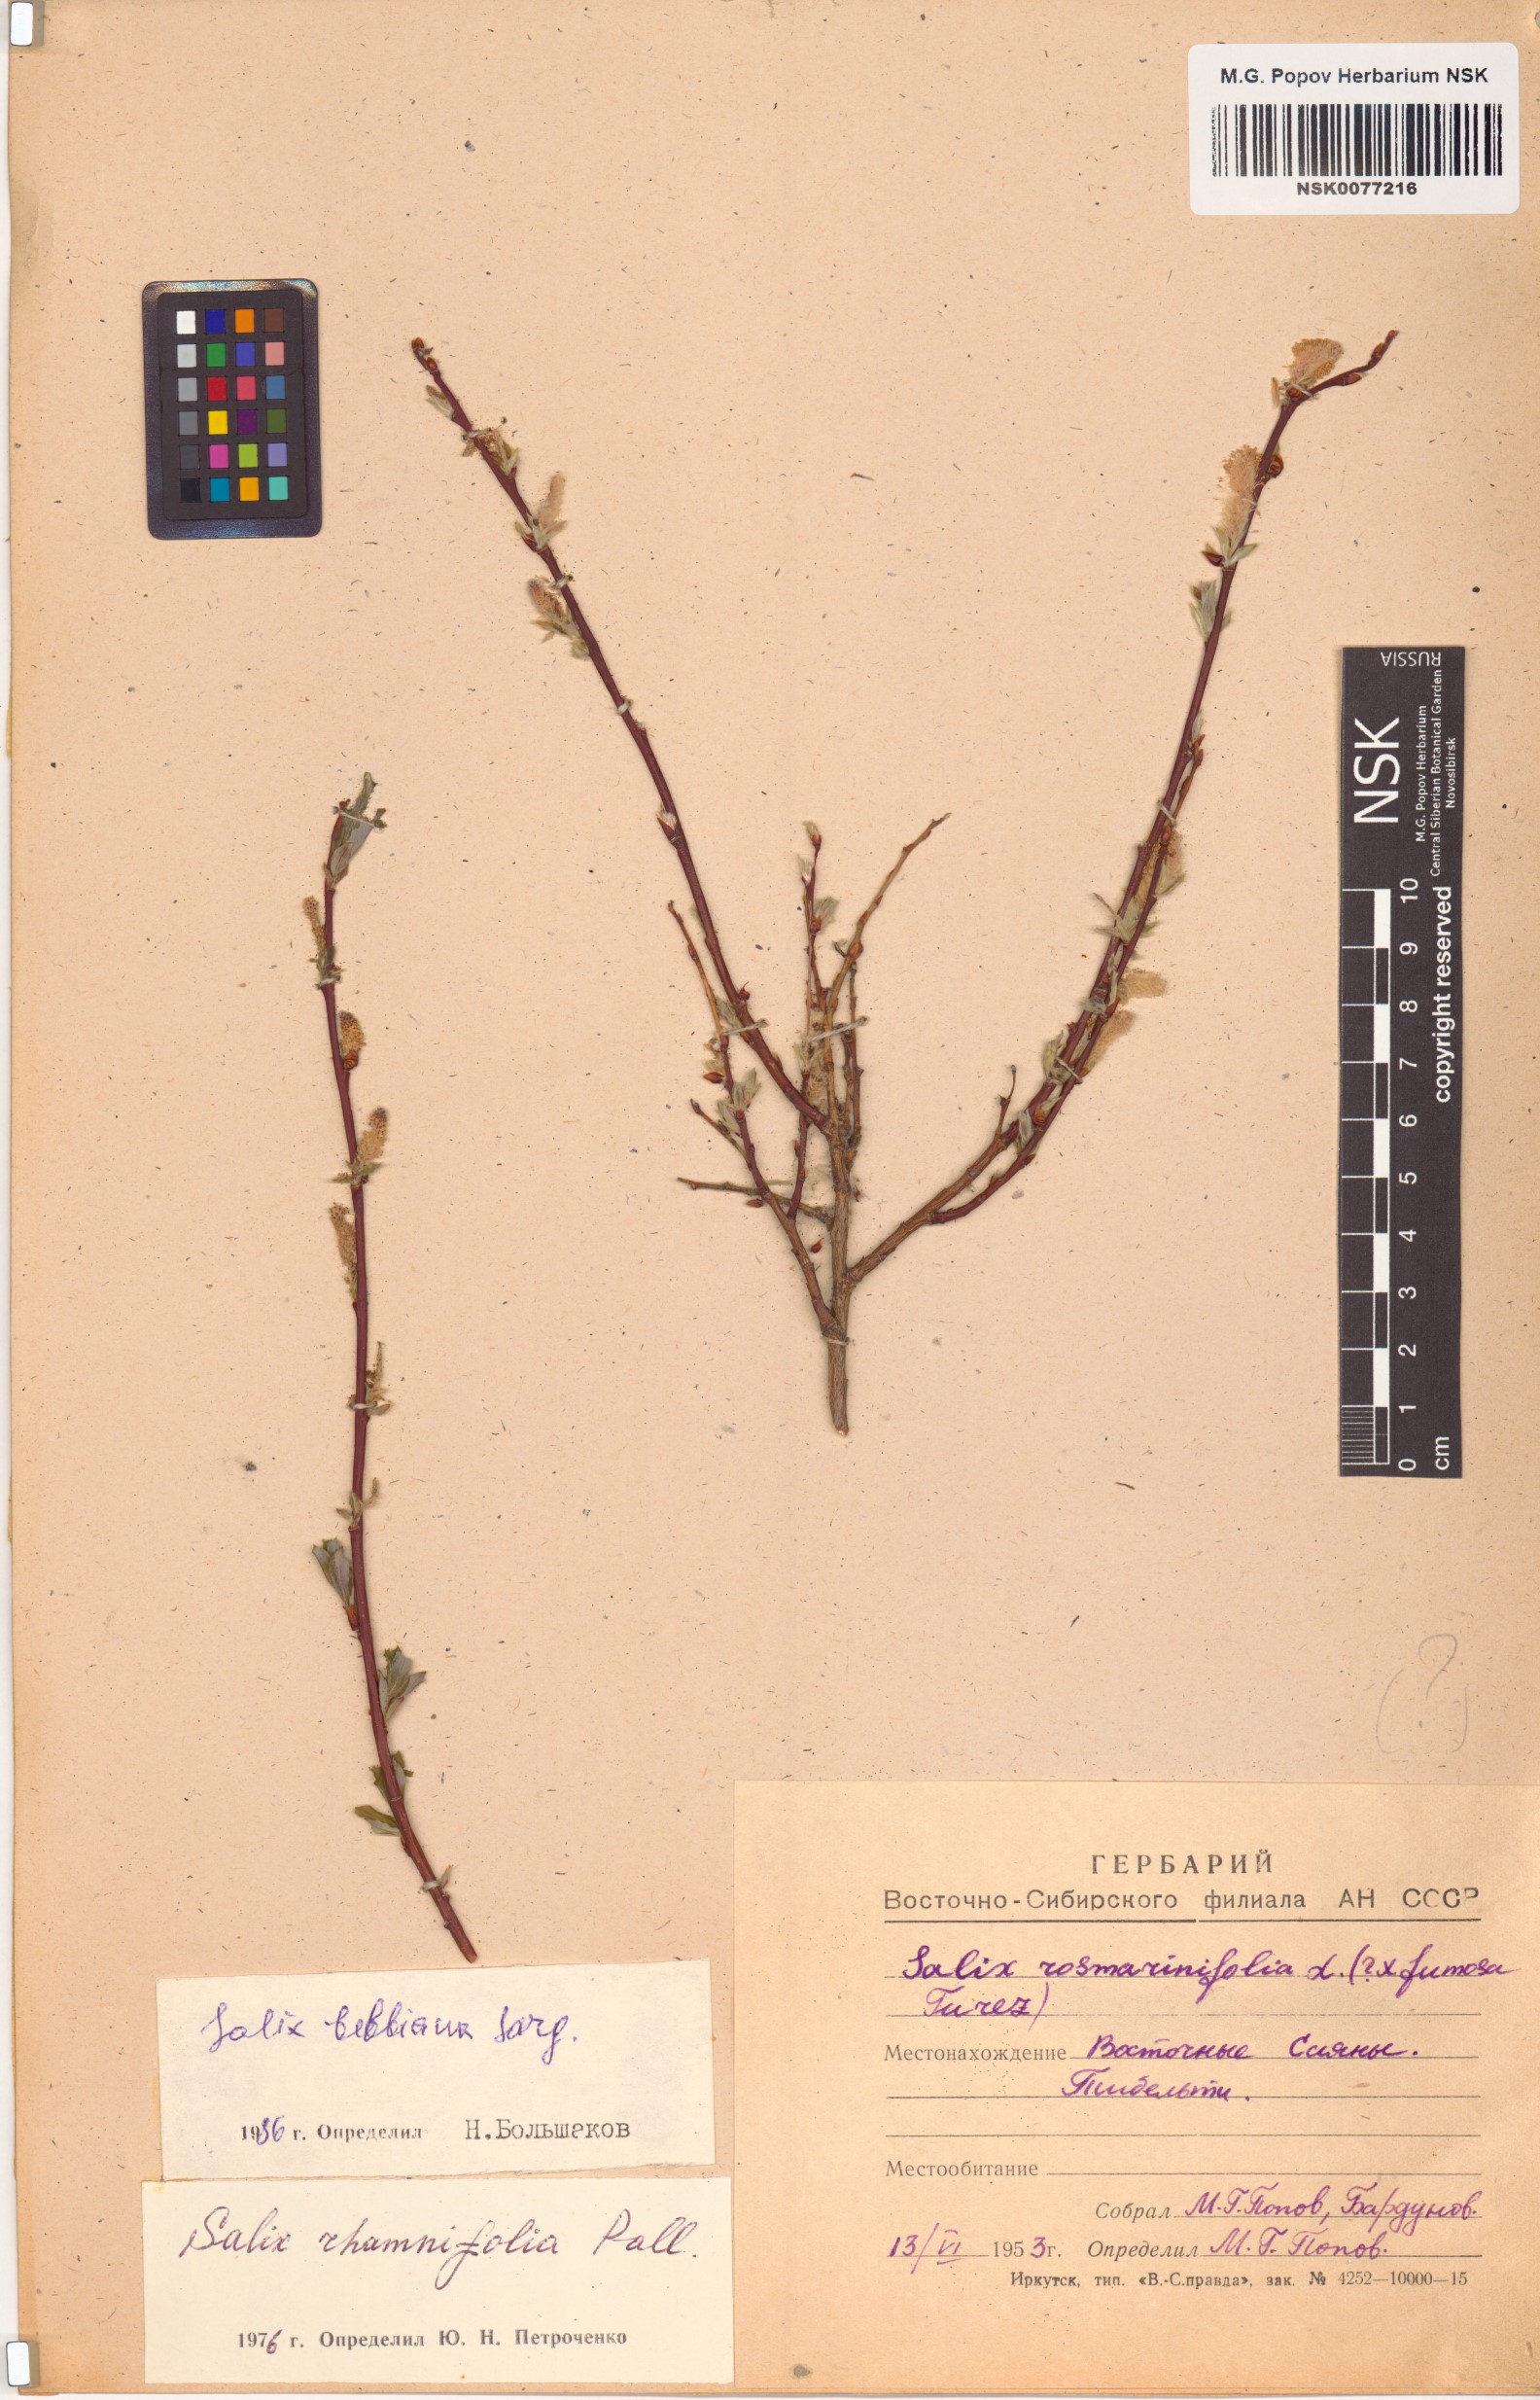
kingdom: Plantae
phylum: Tracheophyta
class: Magnoliopsida
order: Malpighiales
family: Salicaceae
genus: Salix
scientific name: Salix bebbiana
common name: Bebb's willow
